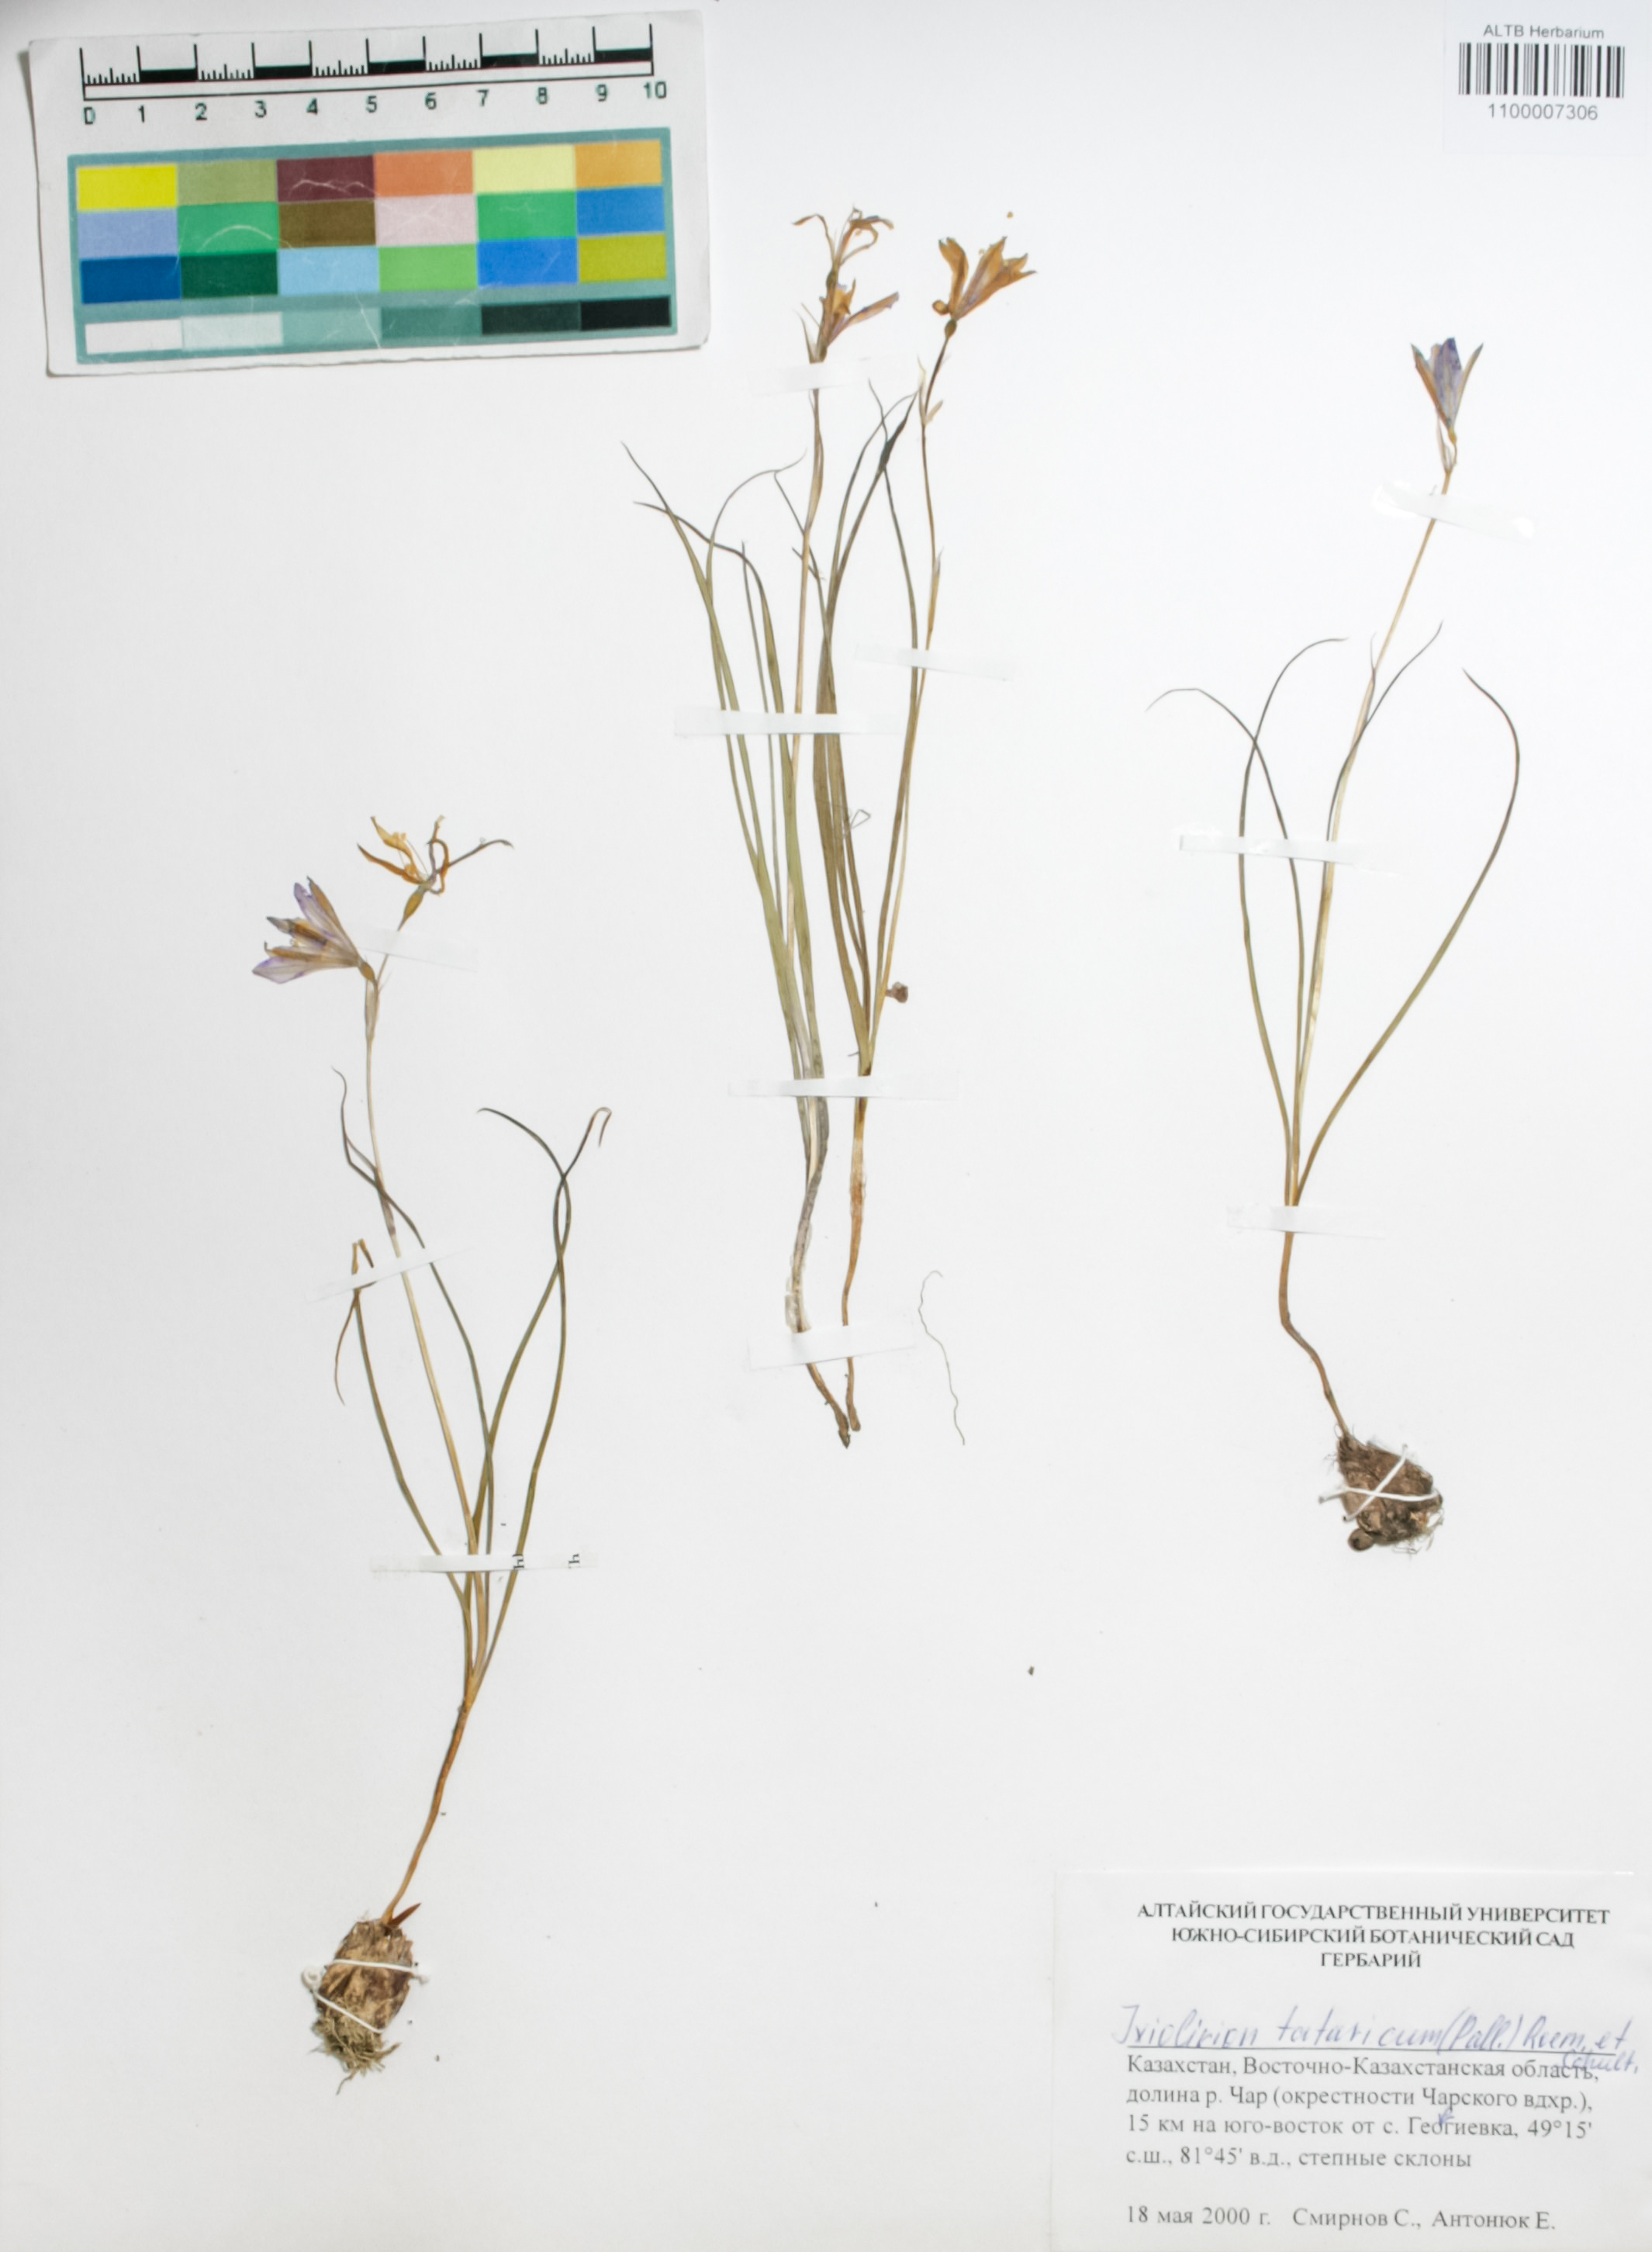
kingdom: Plantae
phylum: Tracheophyta
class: Liliopsida
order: Asparagales
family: Ixioliriaceae
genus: Ixiolirion
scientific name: Ixiolirion tataricum
